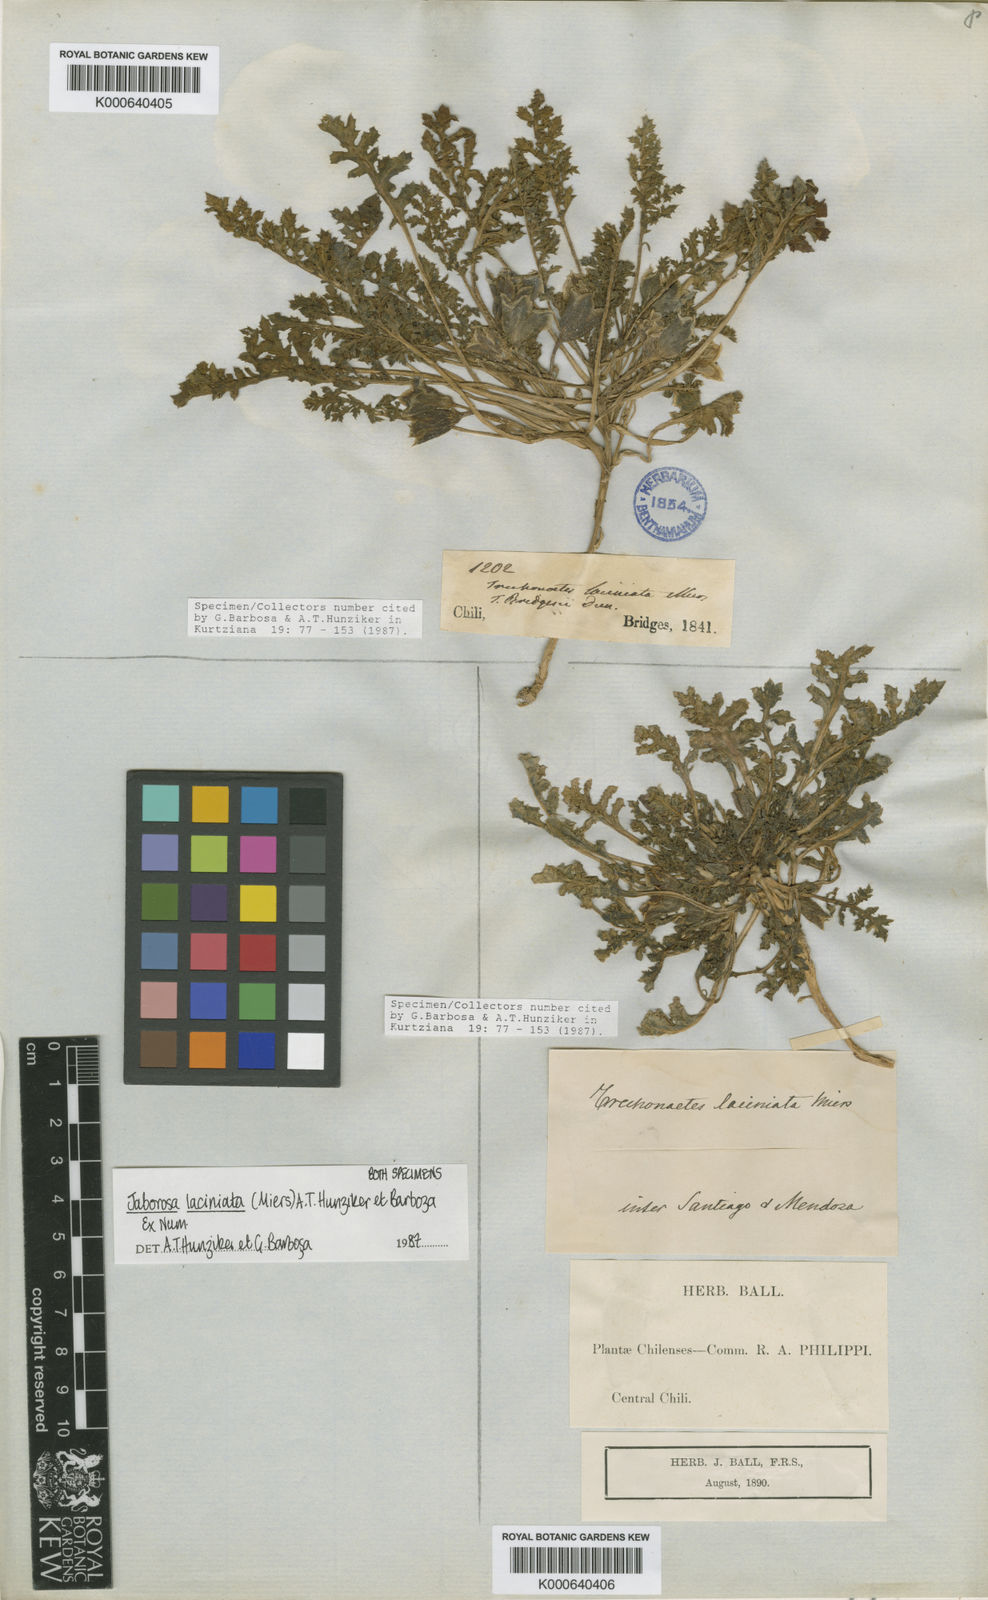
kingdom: Plantae
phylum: Tracheophyta
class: Magnoliopsida
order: Solanales
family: Solanaceae
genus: Jaborosa
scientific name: Jaborosa laciniata
